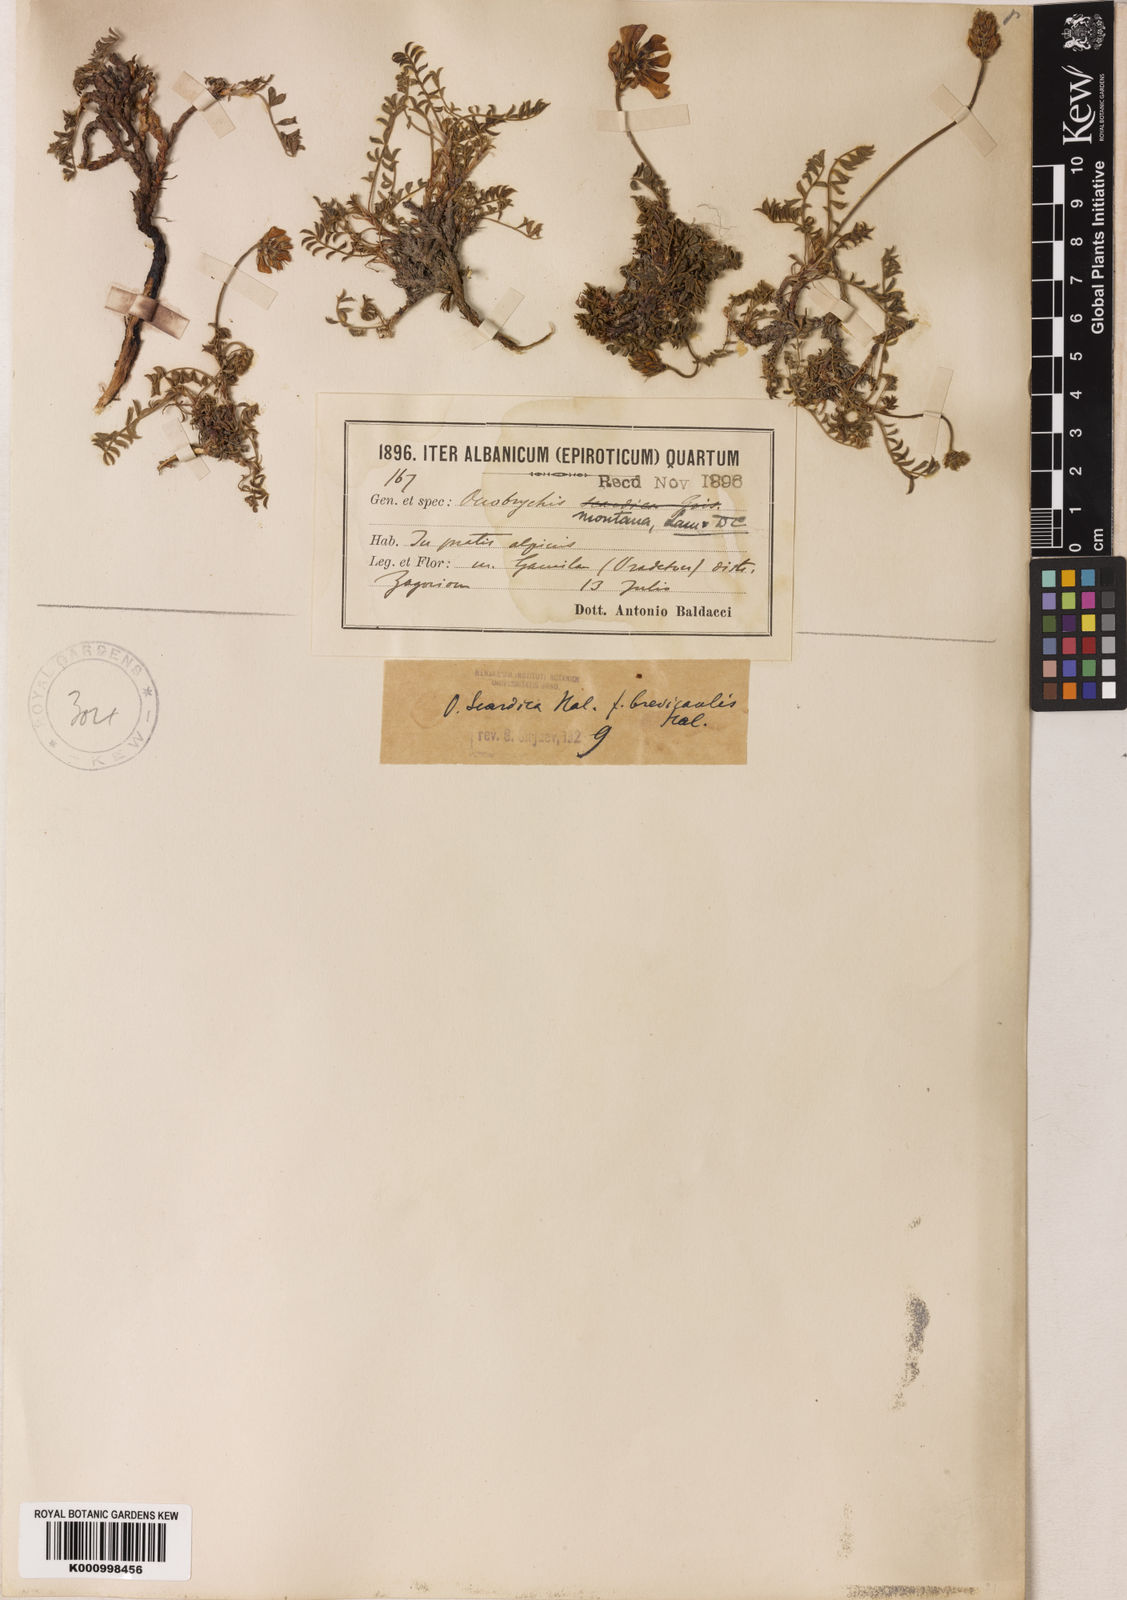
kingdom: Plantae
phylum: Tracheophyta
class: Magnoliopsida
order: Fabales
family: Fabaceae
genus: Onobrychis
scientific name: Onobrychis
